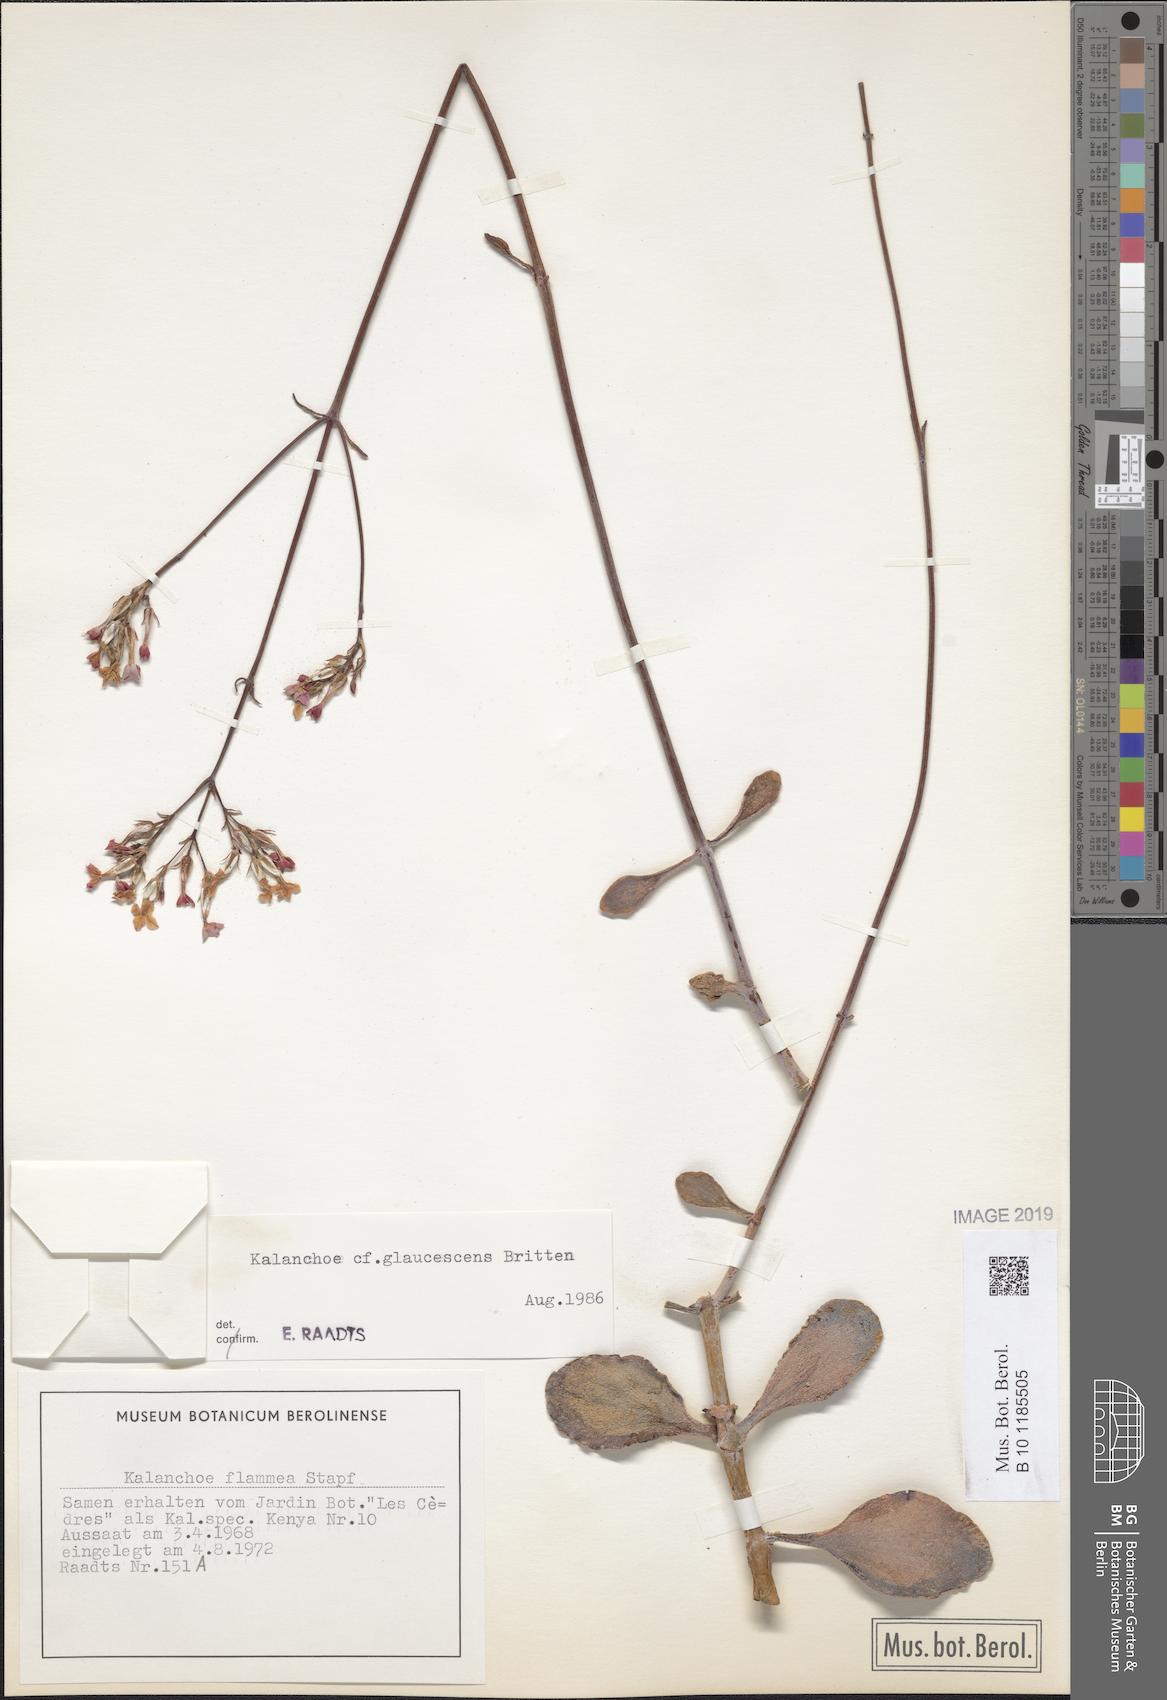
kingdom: Plantae
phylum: Tracheophyta
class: Magnoliopsida
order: Saxifragales
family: Crassulaceae
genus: Kalanchoe
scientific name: Kalanchoe glaucescens
